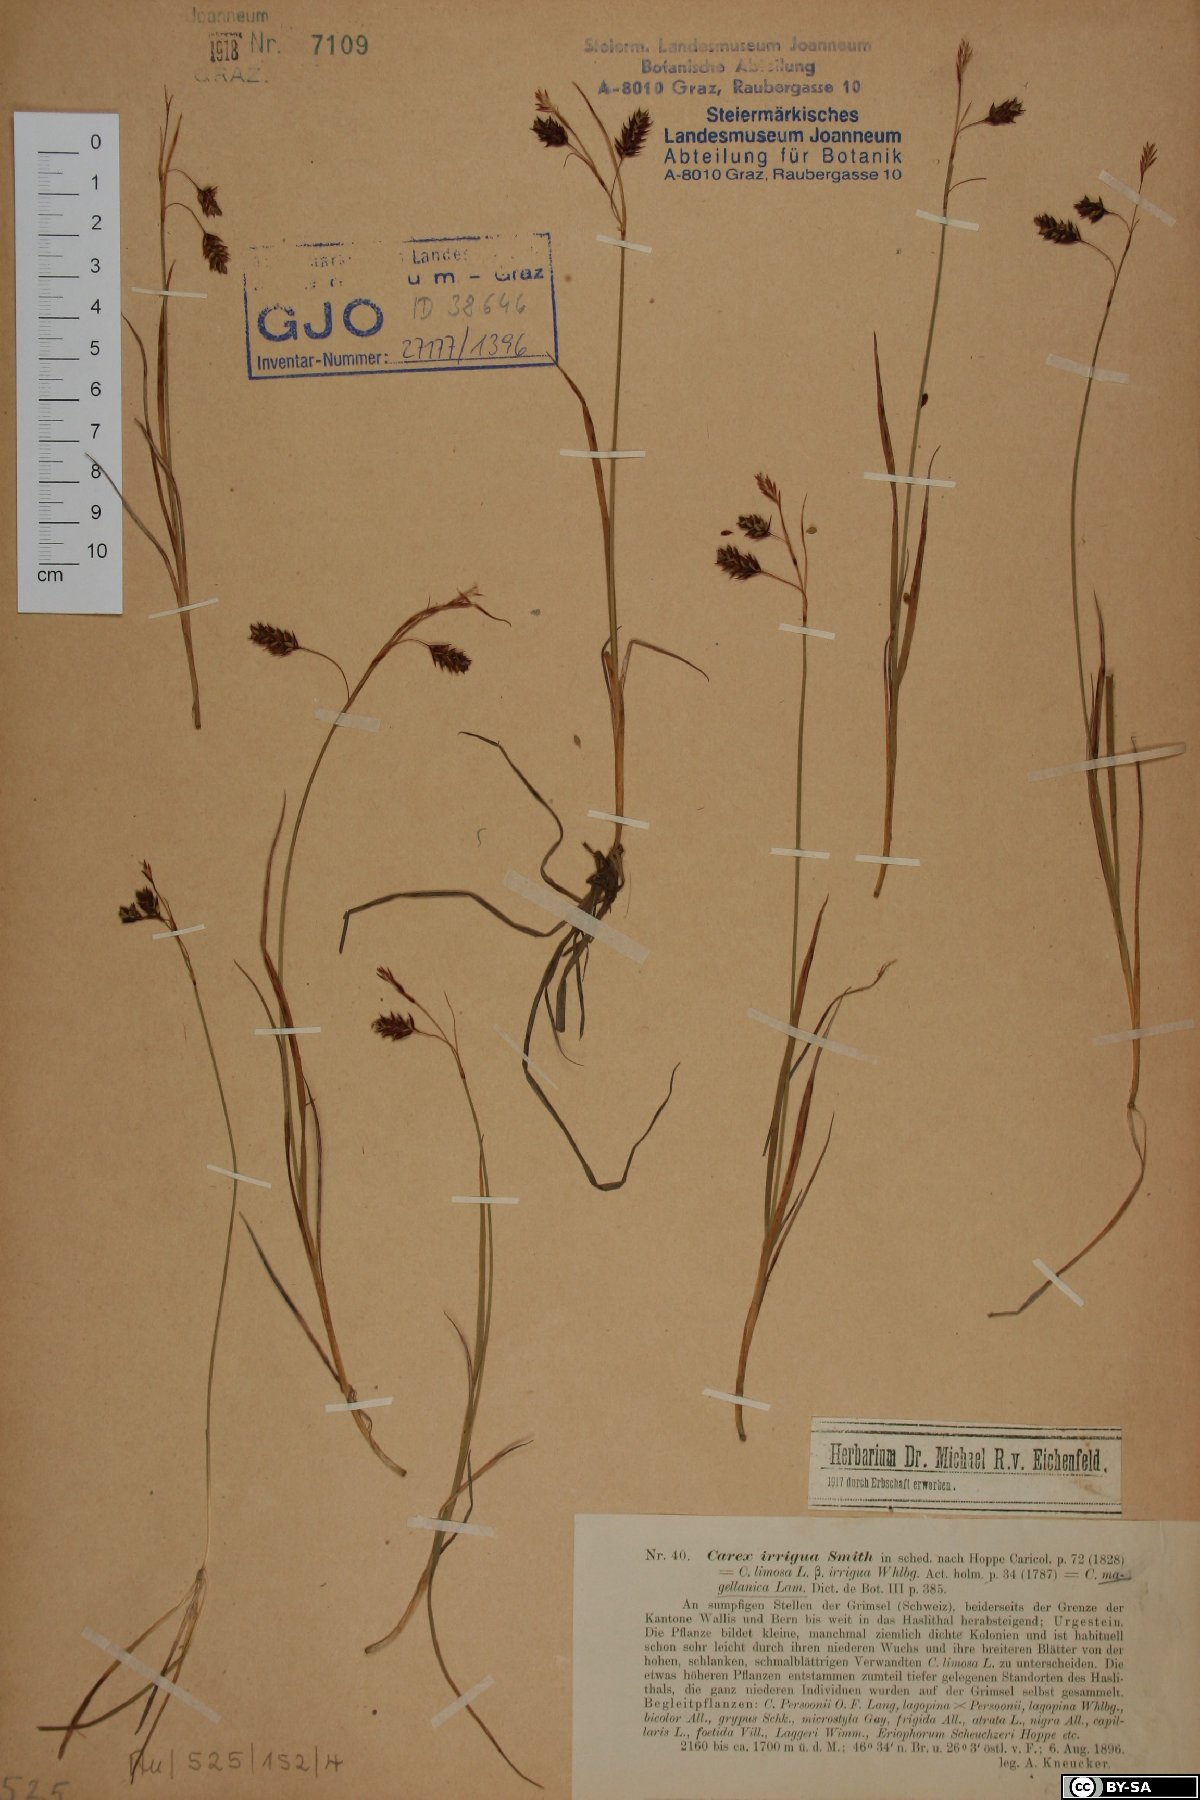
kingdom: Plantae
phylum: Tracheophyta
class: Liliopsida
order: Poales
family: Cyperaceae
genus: Carex
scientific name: Carex magellanica
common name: Bog sedge
